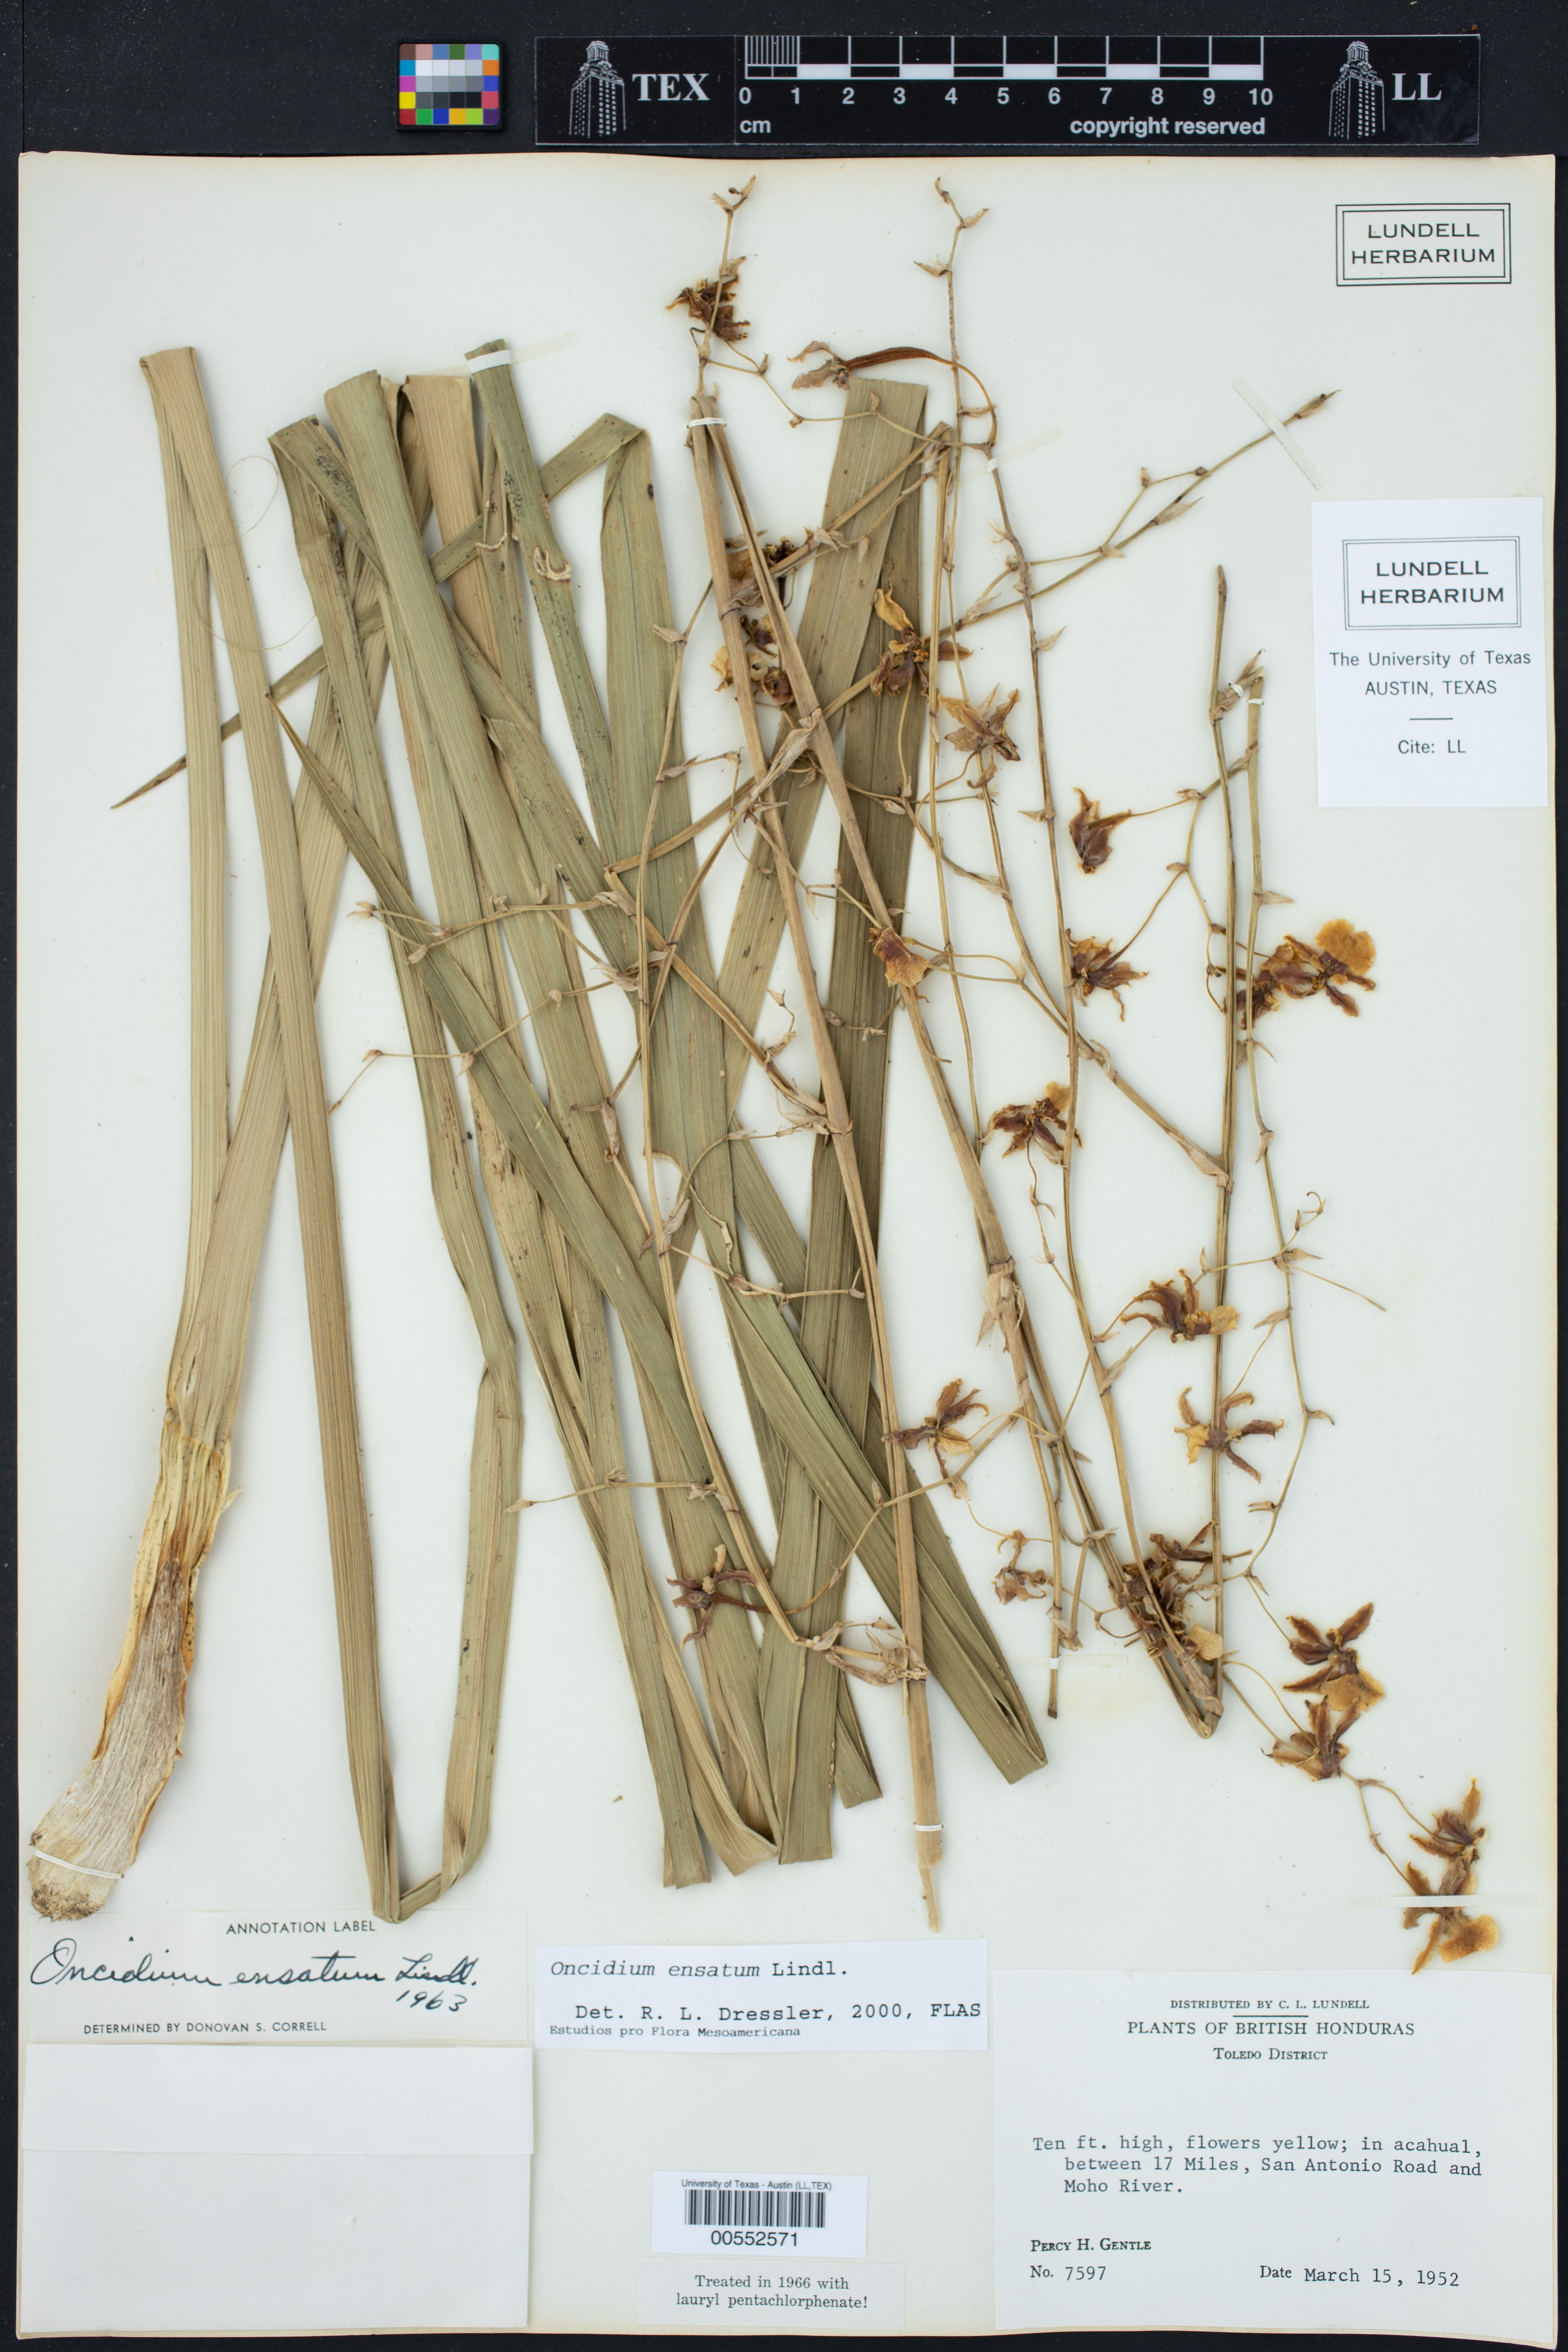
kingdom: Plantae
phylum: Tracheophyta
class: Liliopsida
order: Asparagales
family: Orchidaceae
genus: Oncidium
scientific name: Oncidium ensatum
